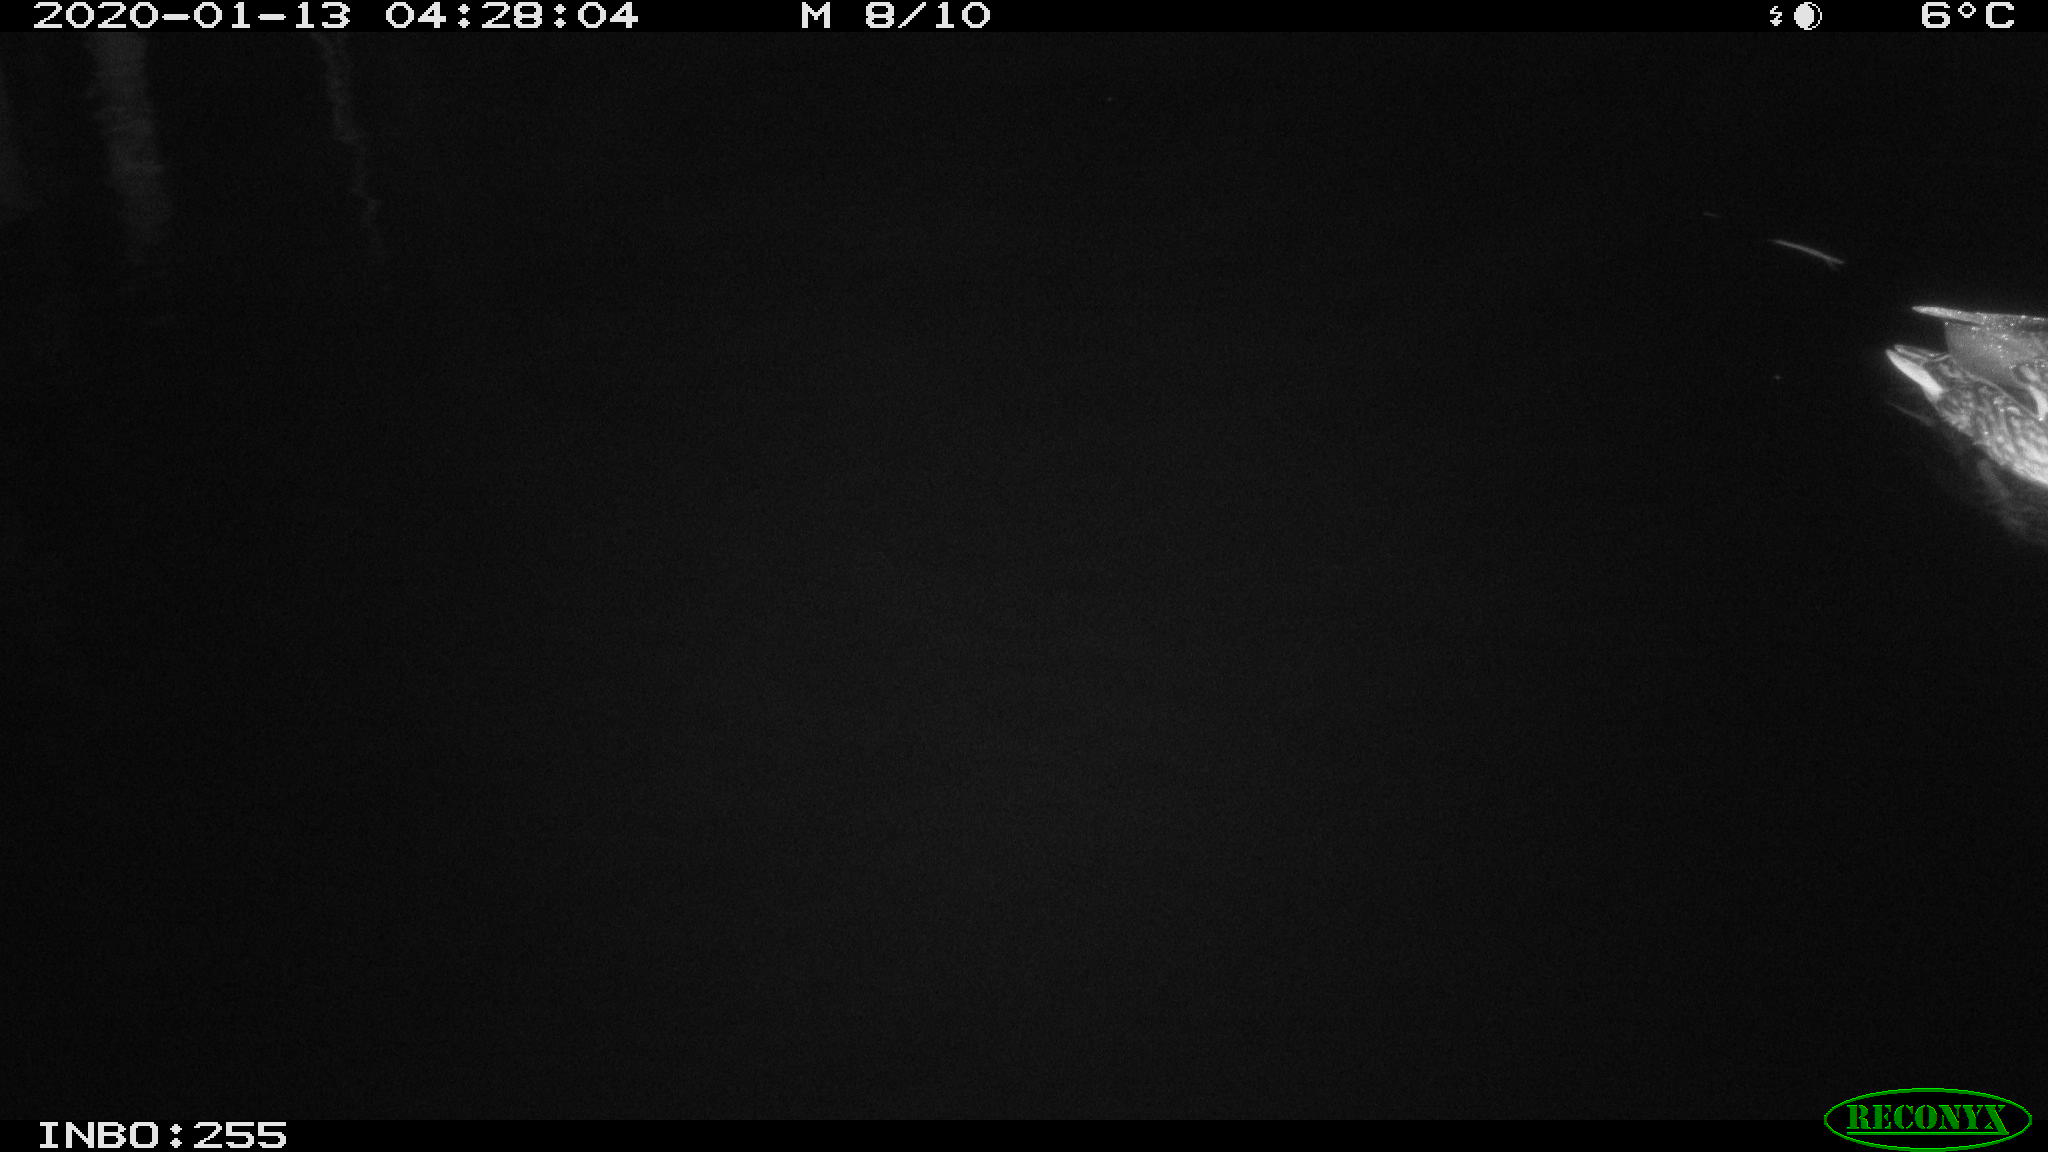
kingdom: Animalia
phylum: Chordata
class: Aves
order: Anseriformes
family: Anatidae
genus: Anas
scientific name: Anas platyrhynchos
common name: Mallard
